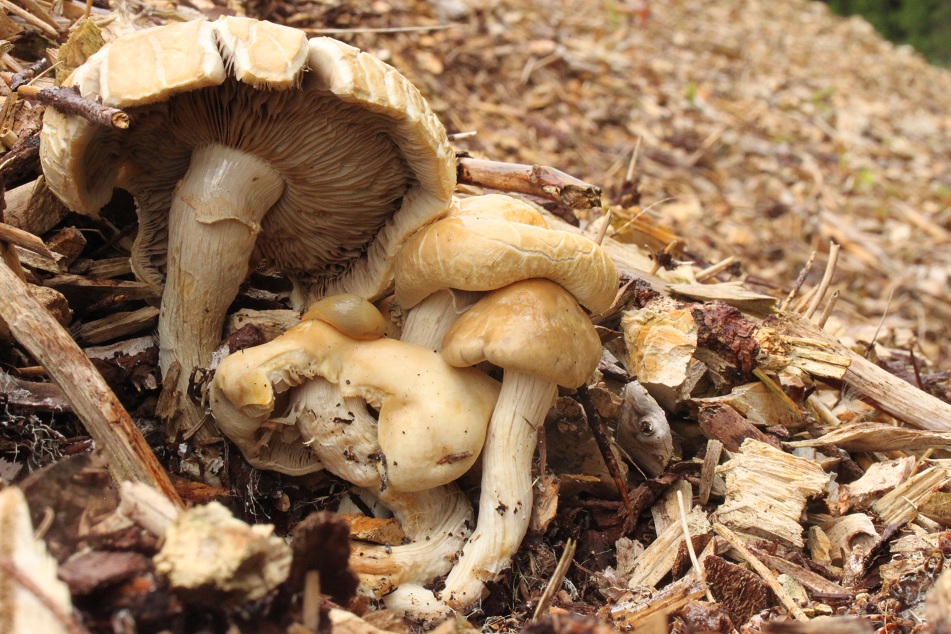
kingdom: Fungi
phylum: Basidiomycota
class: Agaricomycetes
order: Agaricales
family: Strophariaceae
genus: Agrocybe
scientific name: Agrocybe
